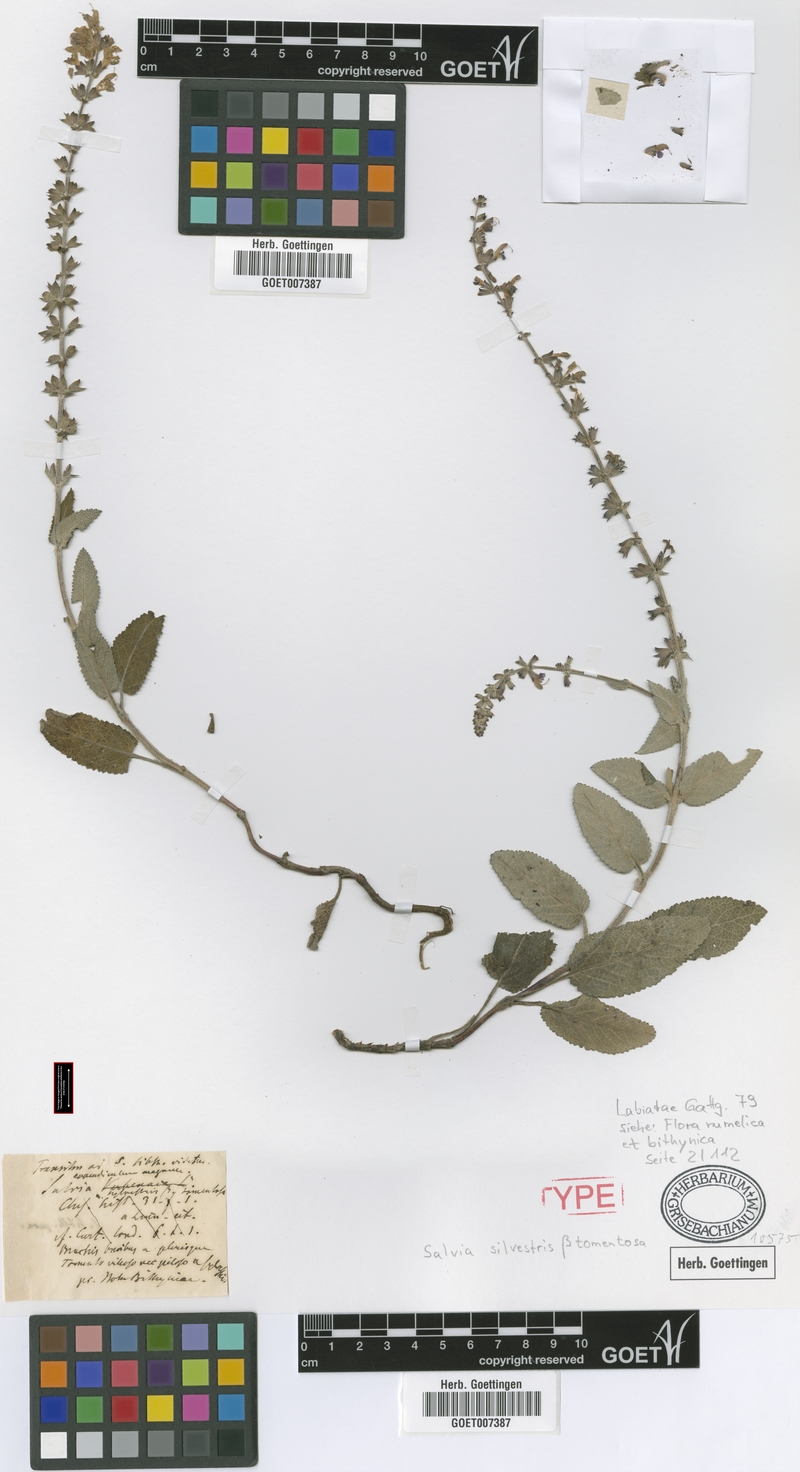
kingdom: Plantae
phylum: Tracheophyta
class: Magnoliopsida
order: Lamiales
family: Lamiaceae
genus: Salvia
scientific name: Salvia nemorosa
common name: Balkan clary
